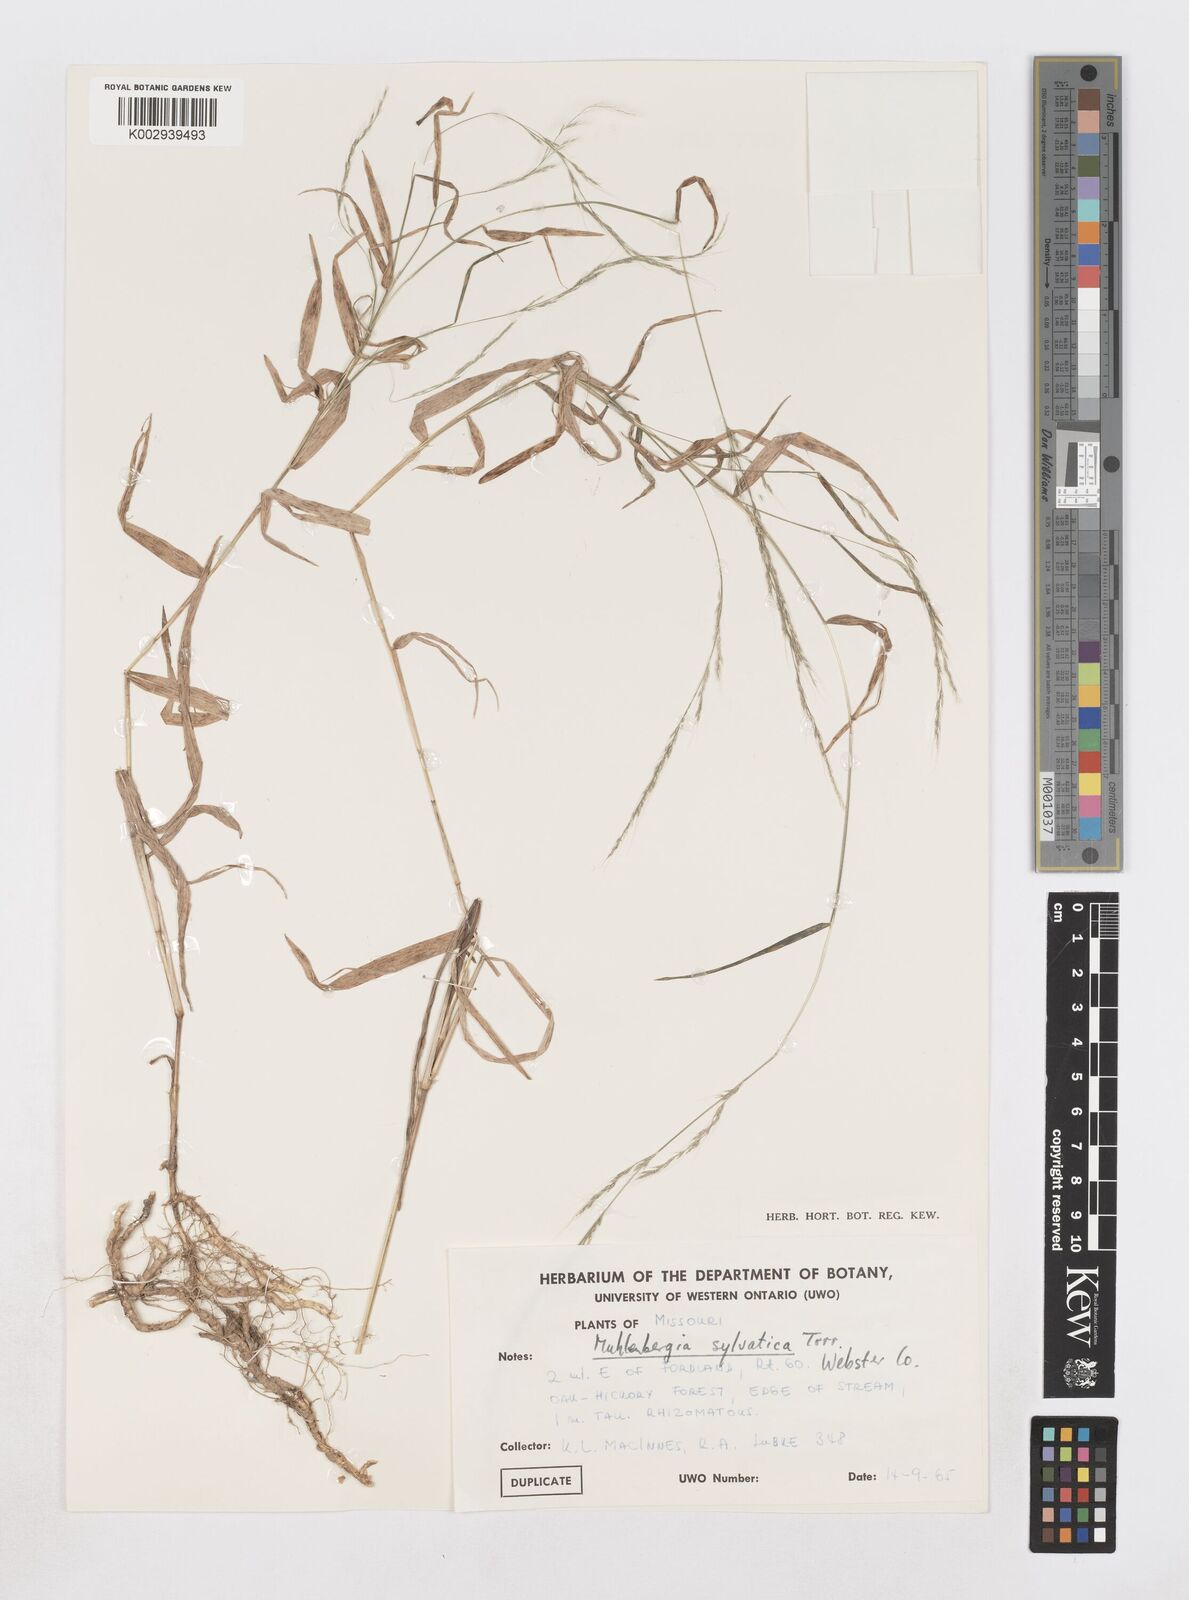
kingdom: Plantae
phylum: Tracheophyta
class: Liliopsida
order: Poales
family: Poaceae
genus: Muhlenbergia
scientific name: Muhlenbergia sylvatica
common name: Woodland muhly
